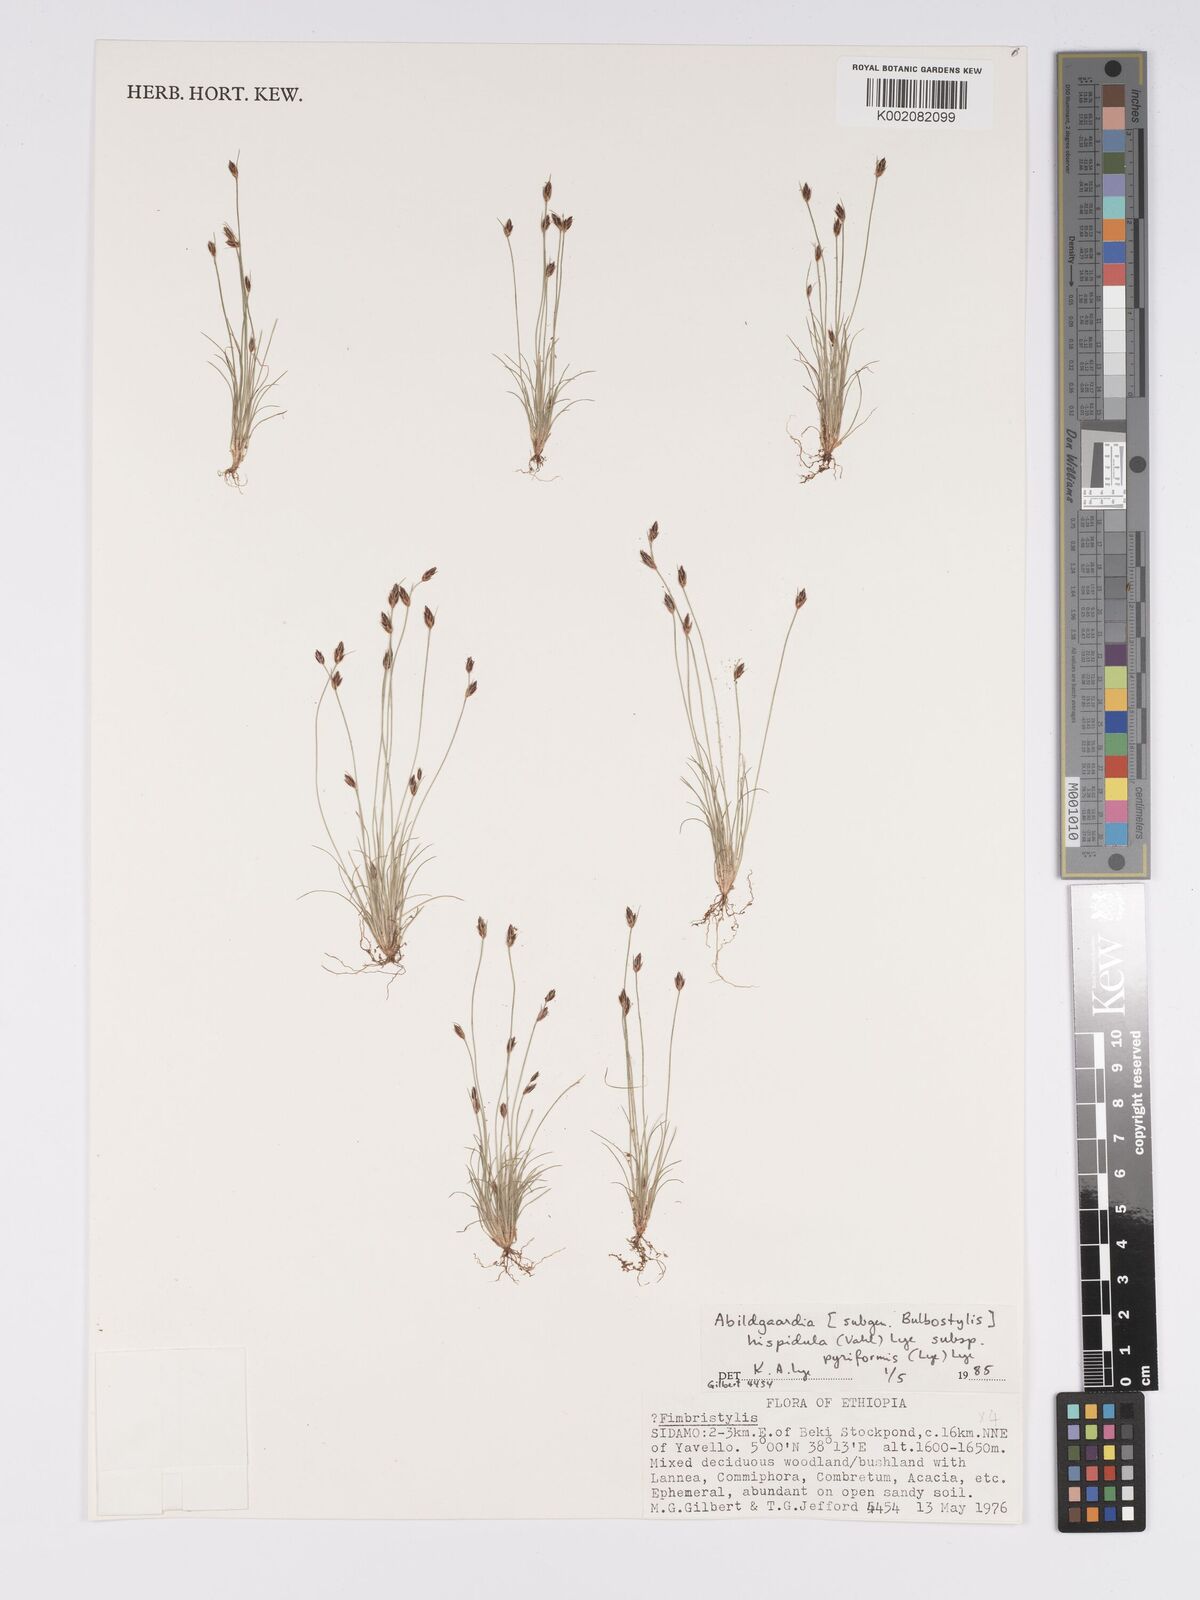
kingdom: Plantae
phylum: Tracheophyta
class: Liliopsida
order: Poales
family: Cyperaceae
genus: Bulbostylis
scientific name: Bulbostylis hispidula
